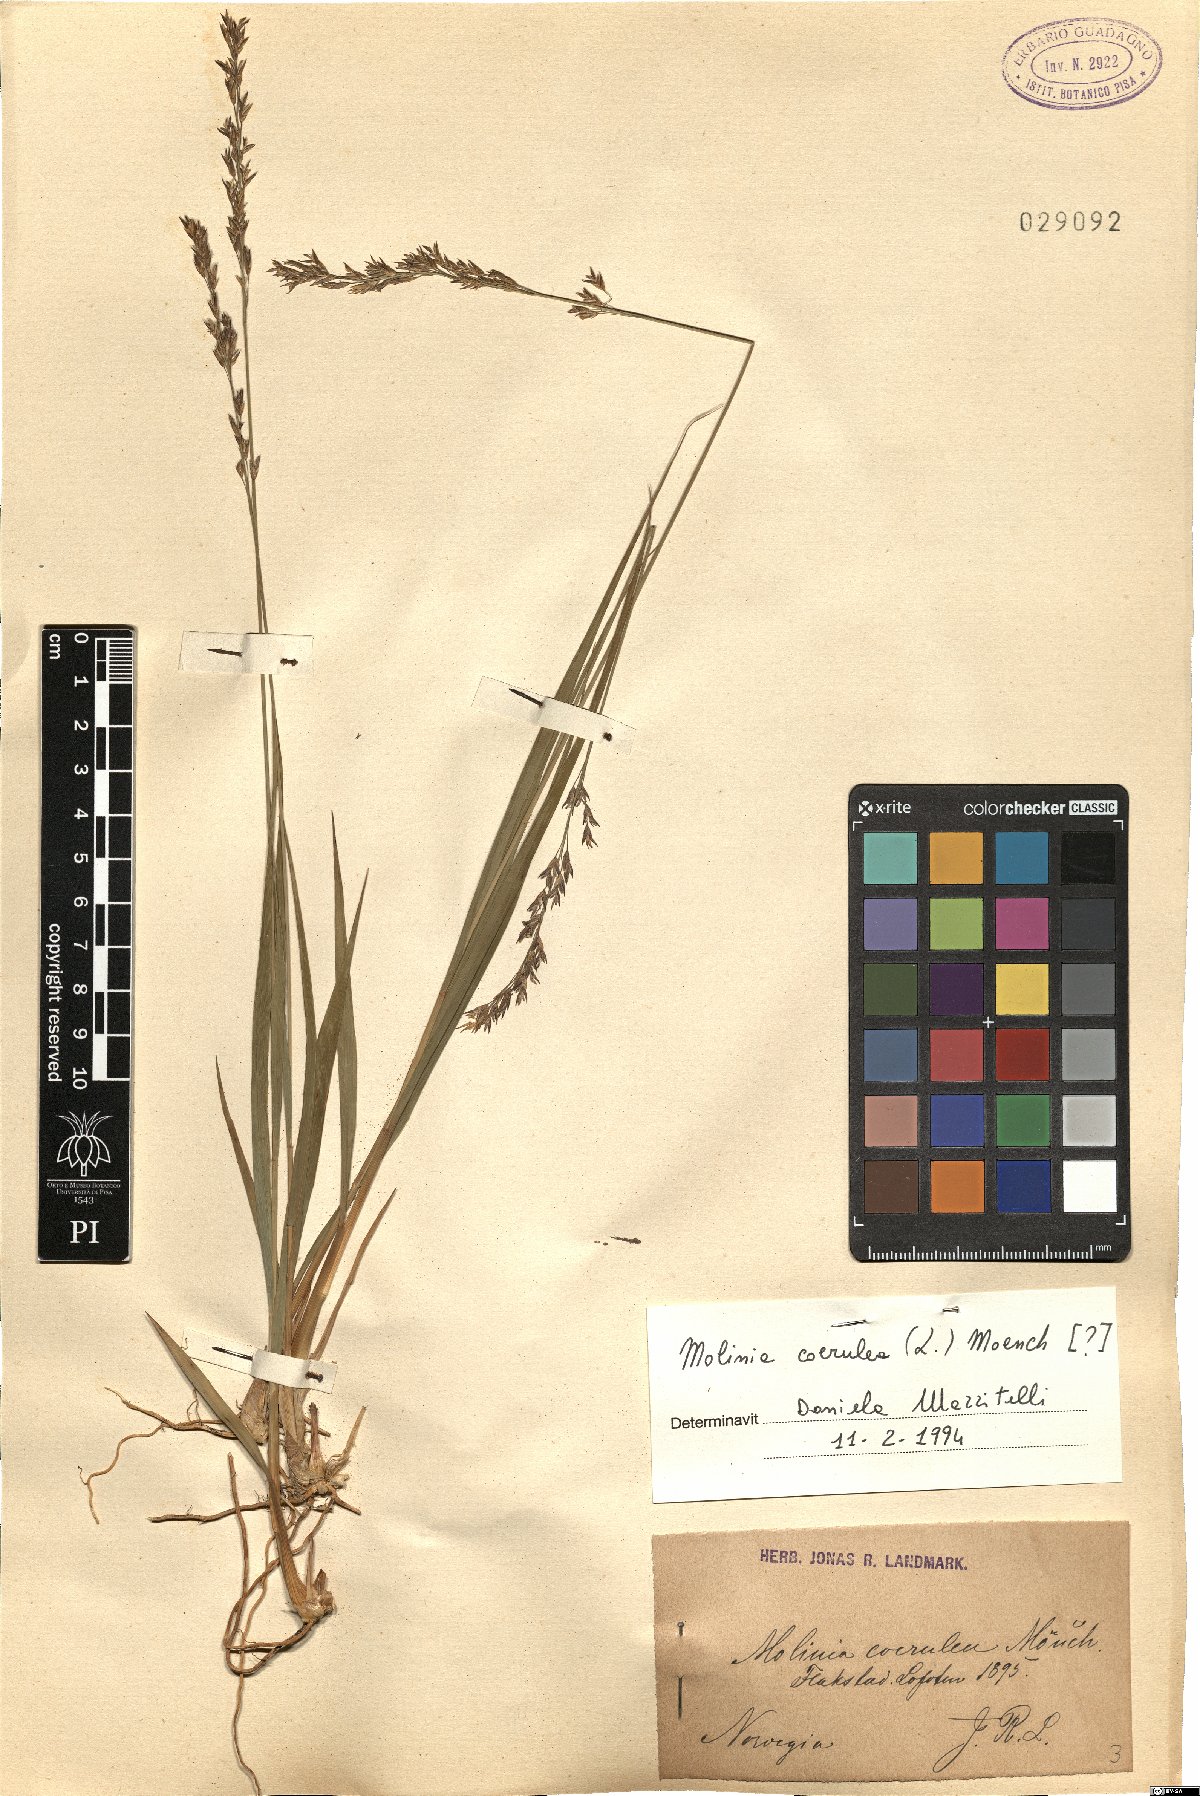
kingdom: Plantae
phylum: Tracheophyta
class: Liliopsida
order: Poales
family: Poaceae
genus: Molinia
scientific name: Molinia caerulea
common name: Purple moor-grass
